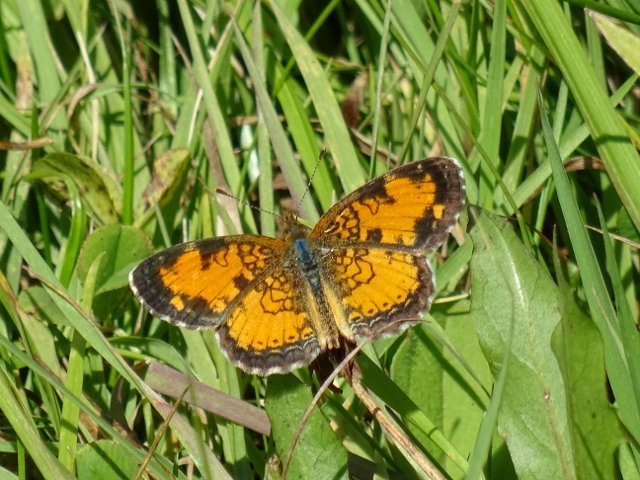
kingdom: Animalia
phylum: Arthropoda
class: Insecta
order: Lepidoptera
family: Nymphalidae
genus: Phyciodes
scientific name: Phyciodes tharos
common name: Northern Crescent
